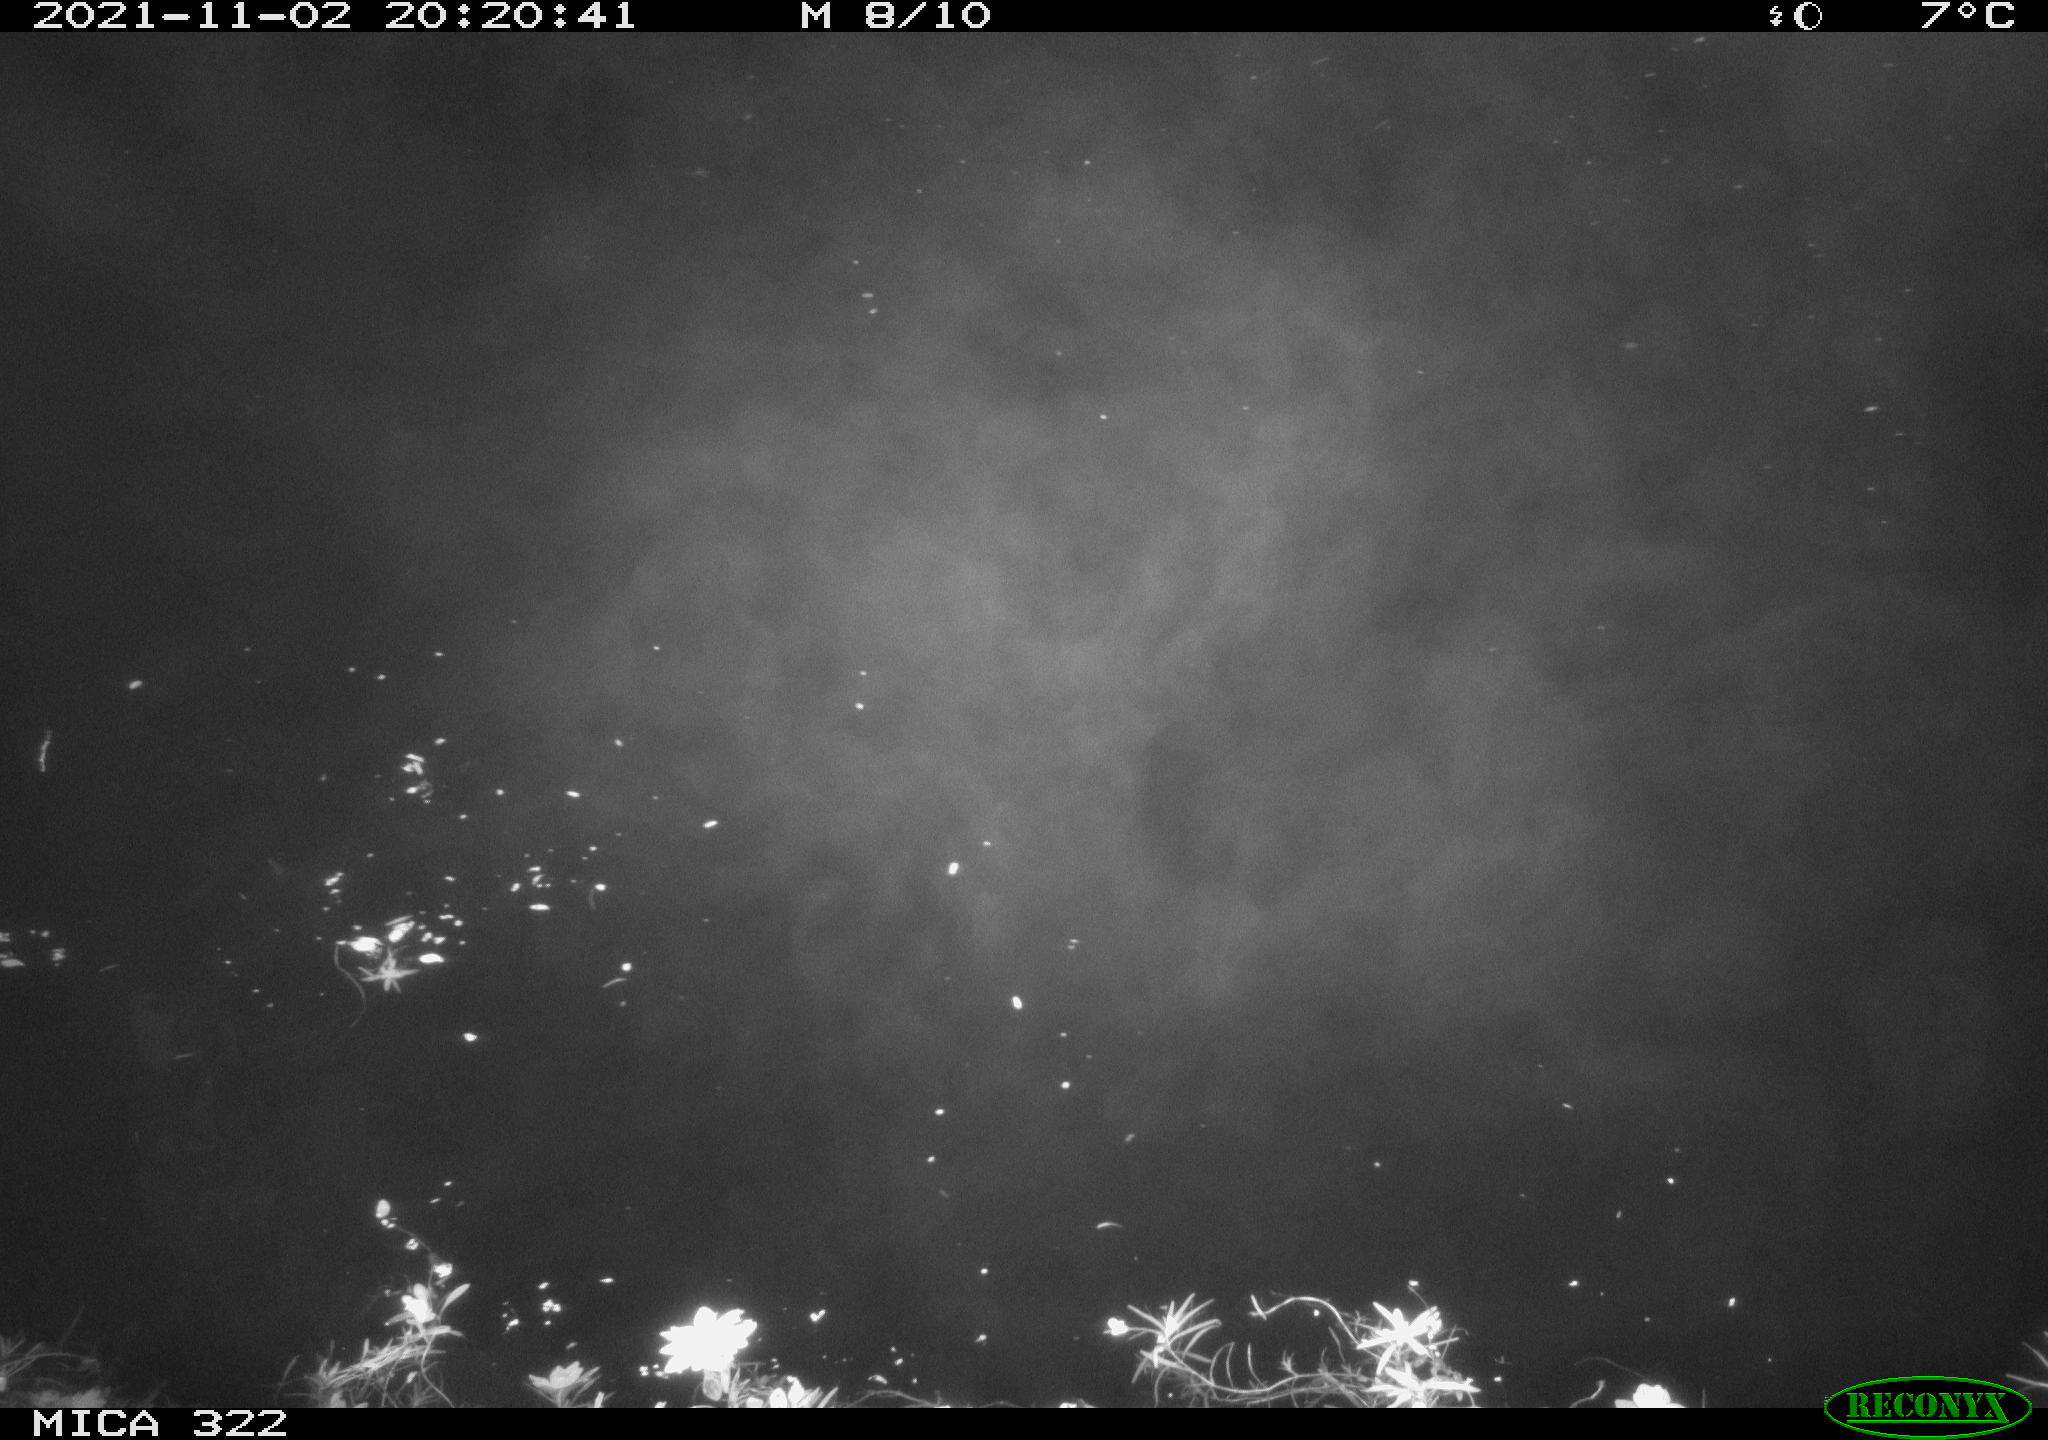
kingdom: Animalia
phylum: Chordata
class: Aves
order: Anseriformes
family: Anatidae
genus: Anas
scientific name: Anas platyrhynchos
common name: Mallard
